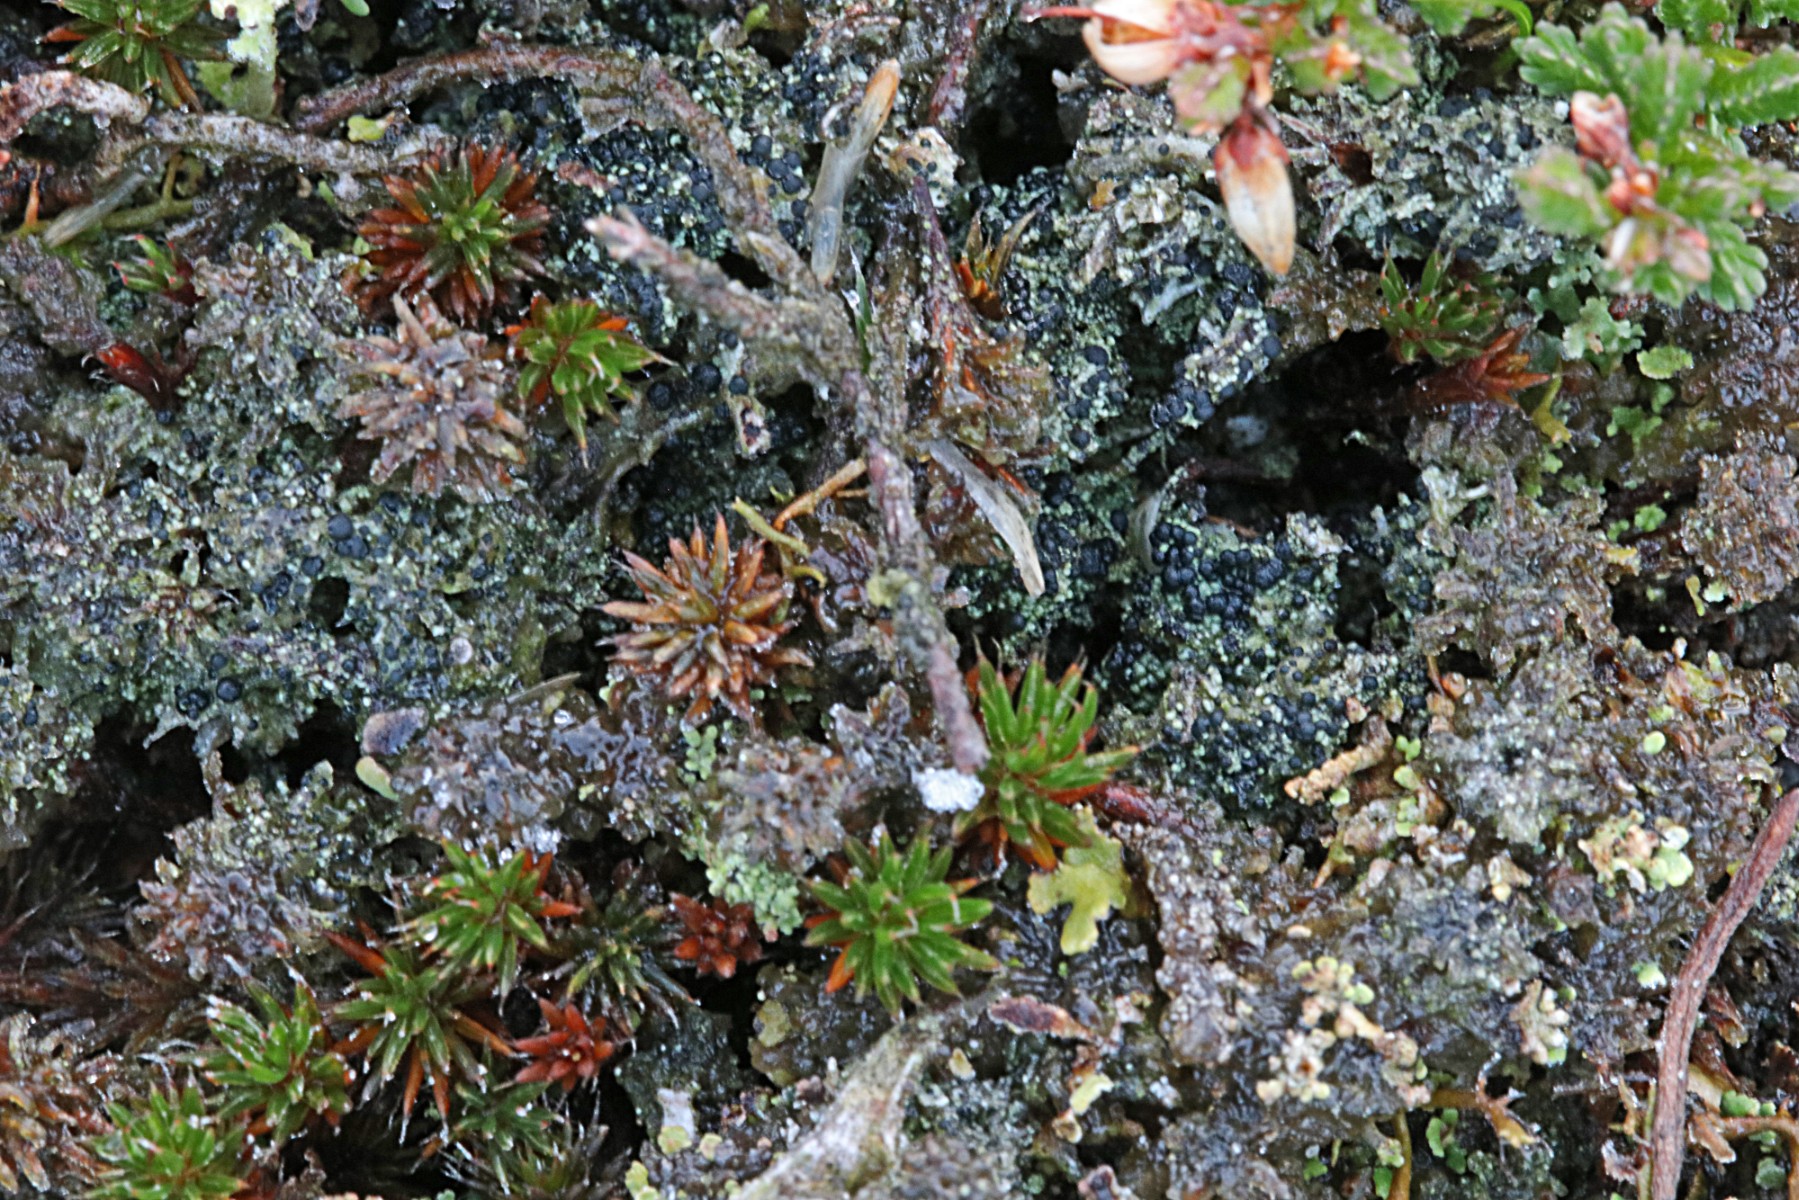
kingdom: Fungi
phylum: Ascomycota
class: Lecanoromycetes
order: Lecanorales
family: Byssolomataceae
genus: Micarea
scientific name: Micarea lignaria
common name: tørve-knaplav
